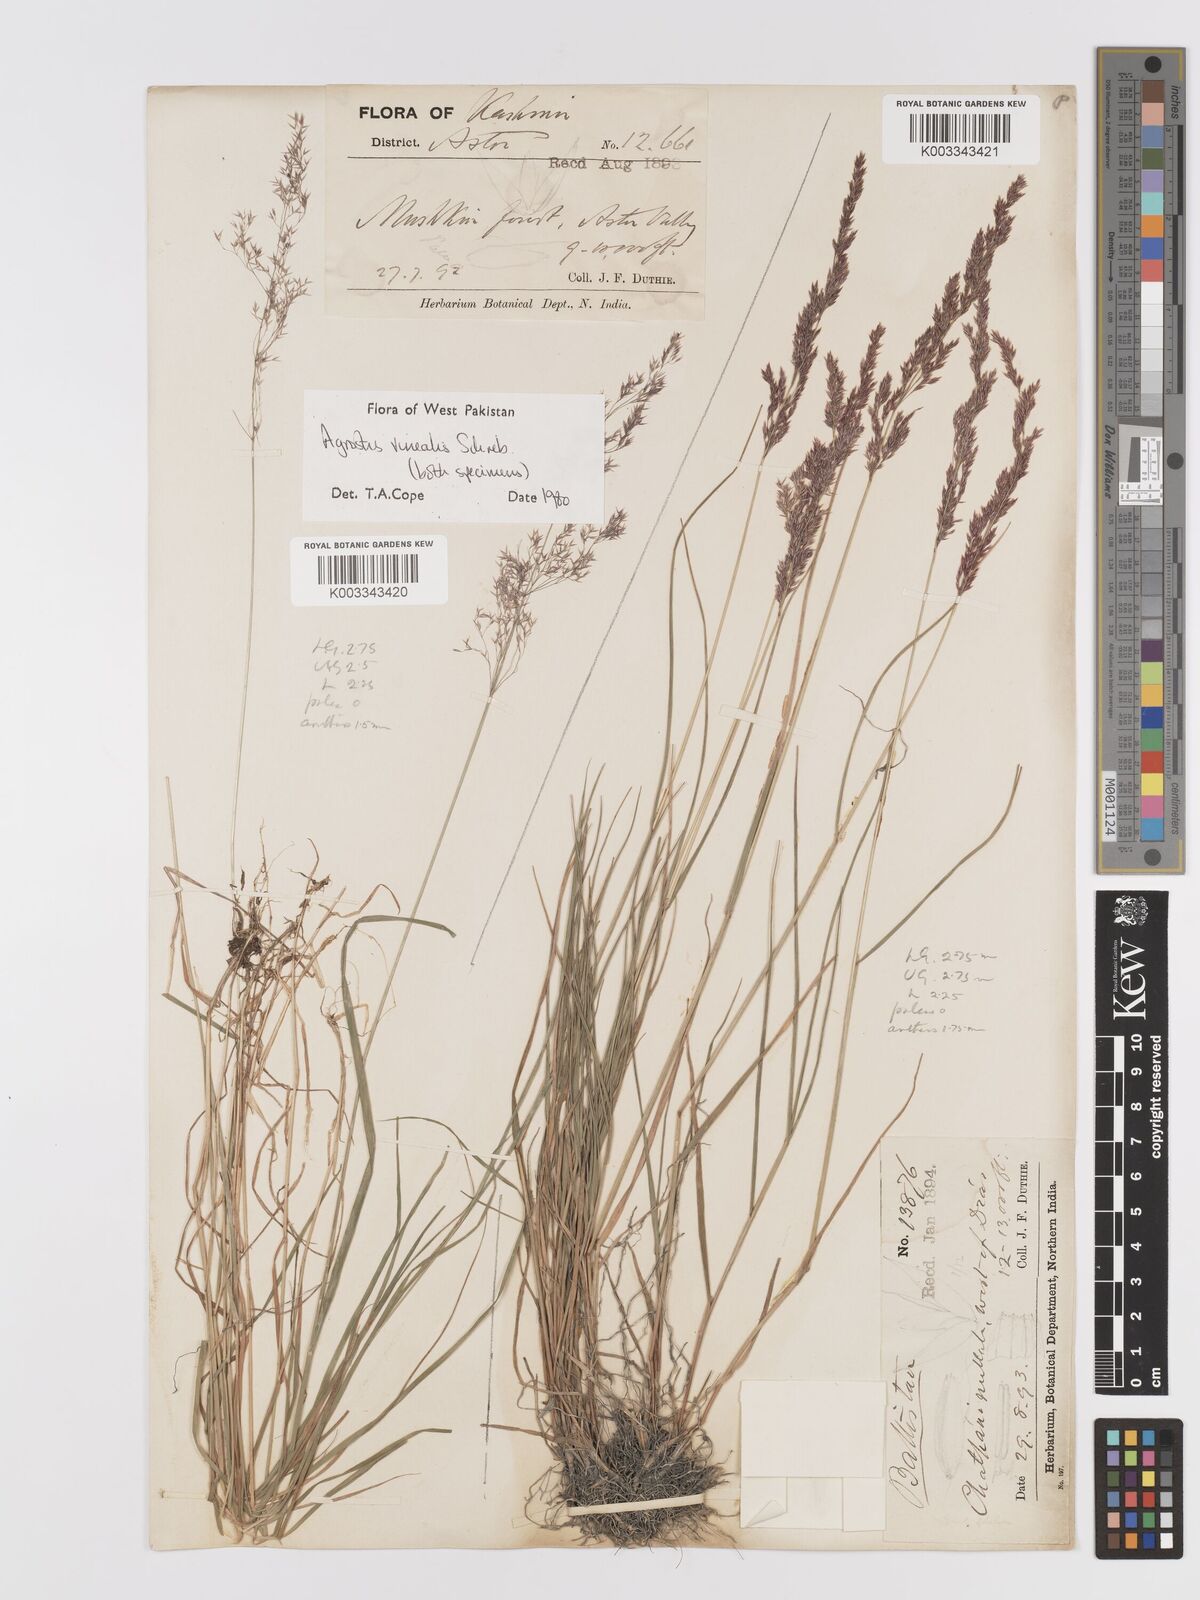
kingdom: Plantae
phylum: Tracheophyta
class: Liliopsida
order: Poales
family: Poaceae
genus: Agrostis
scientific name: Agrostis vinealis
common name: Brown bent
